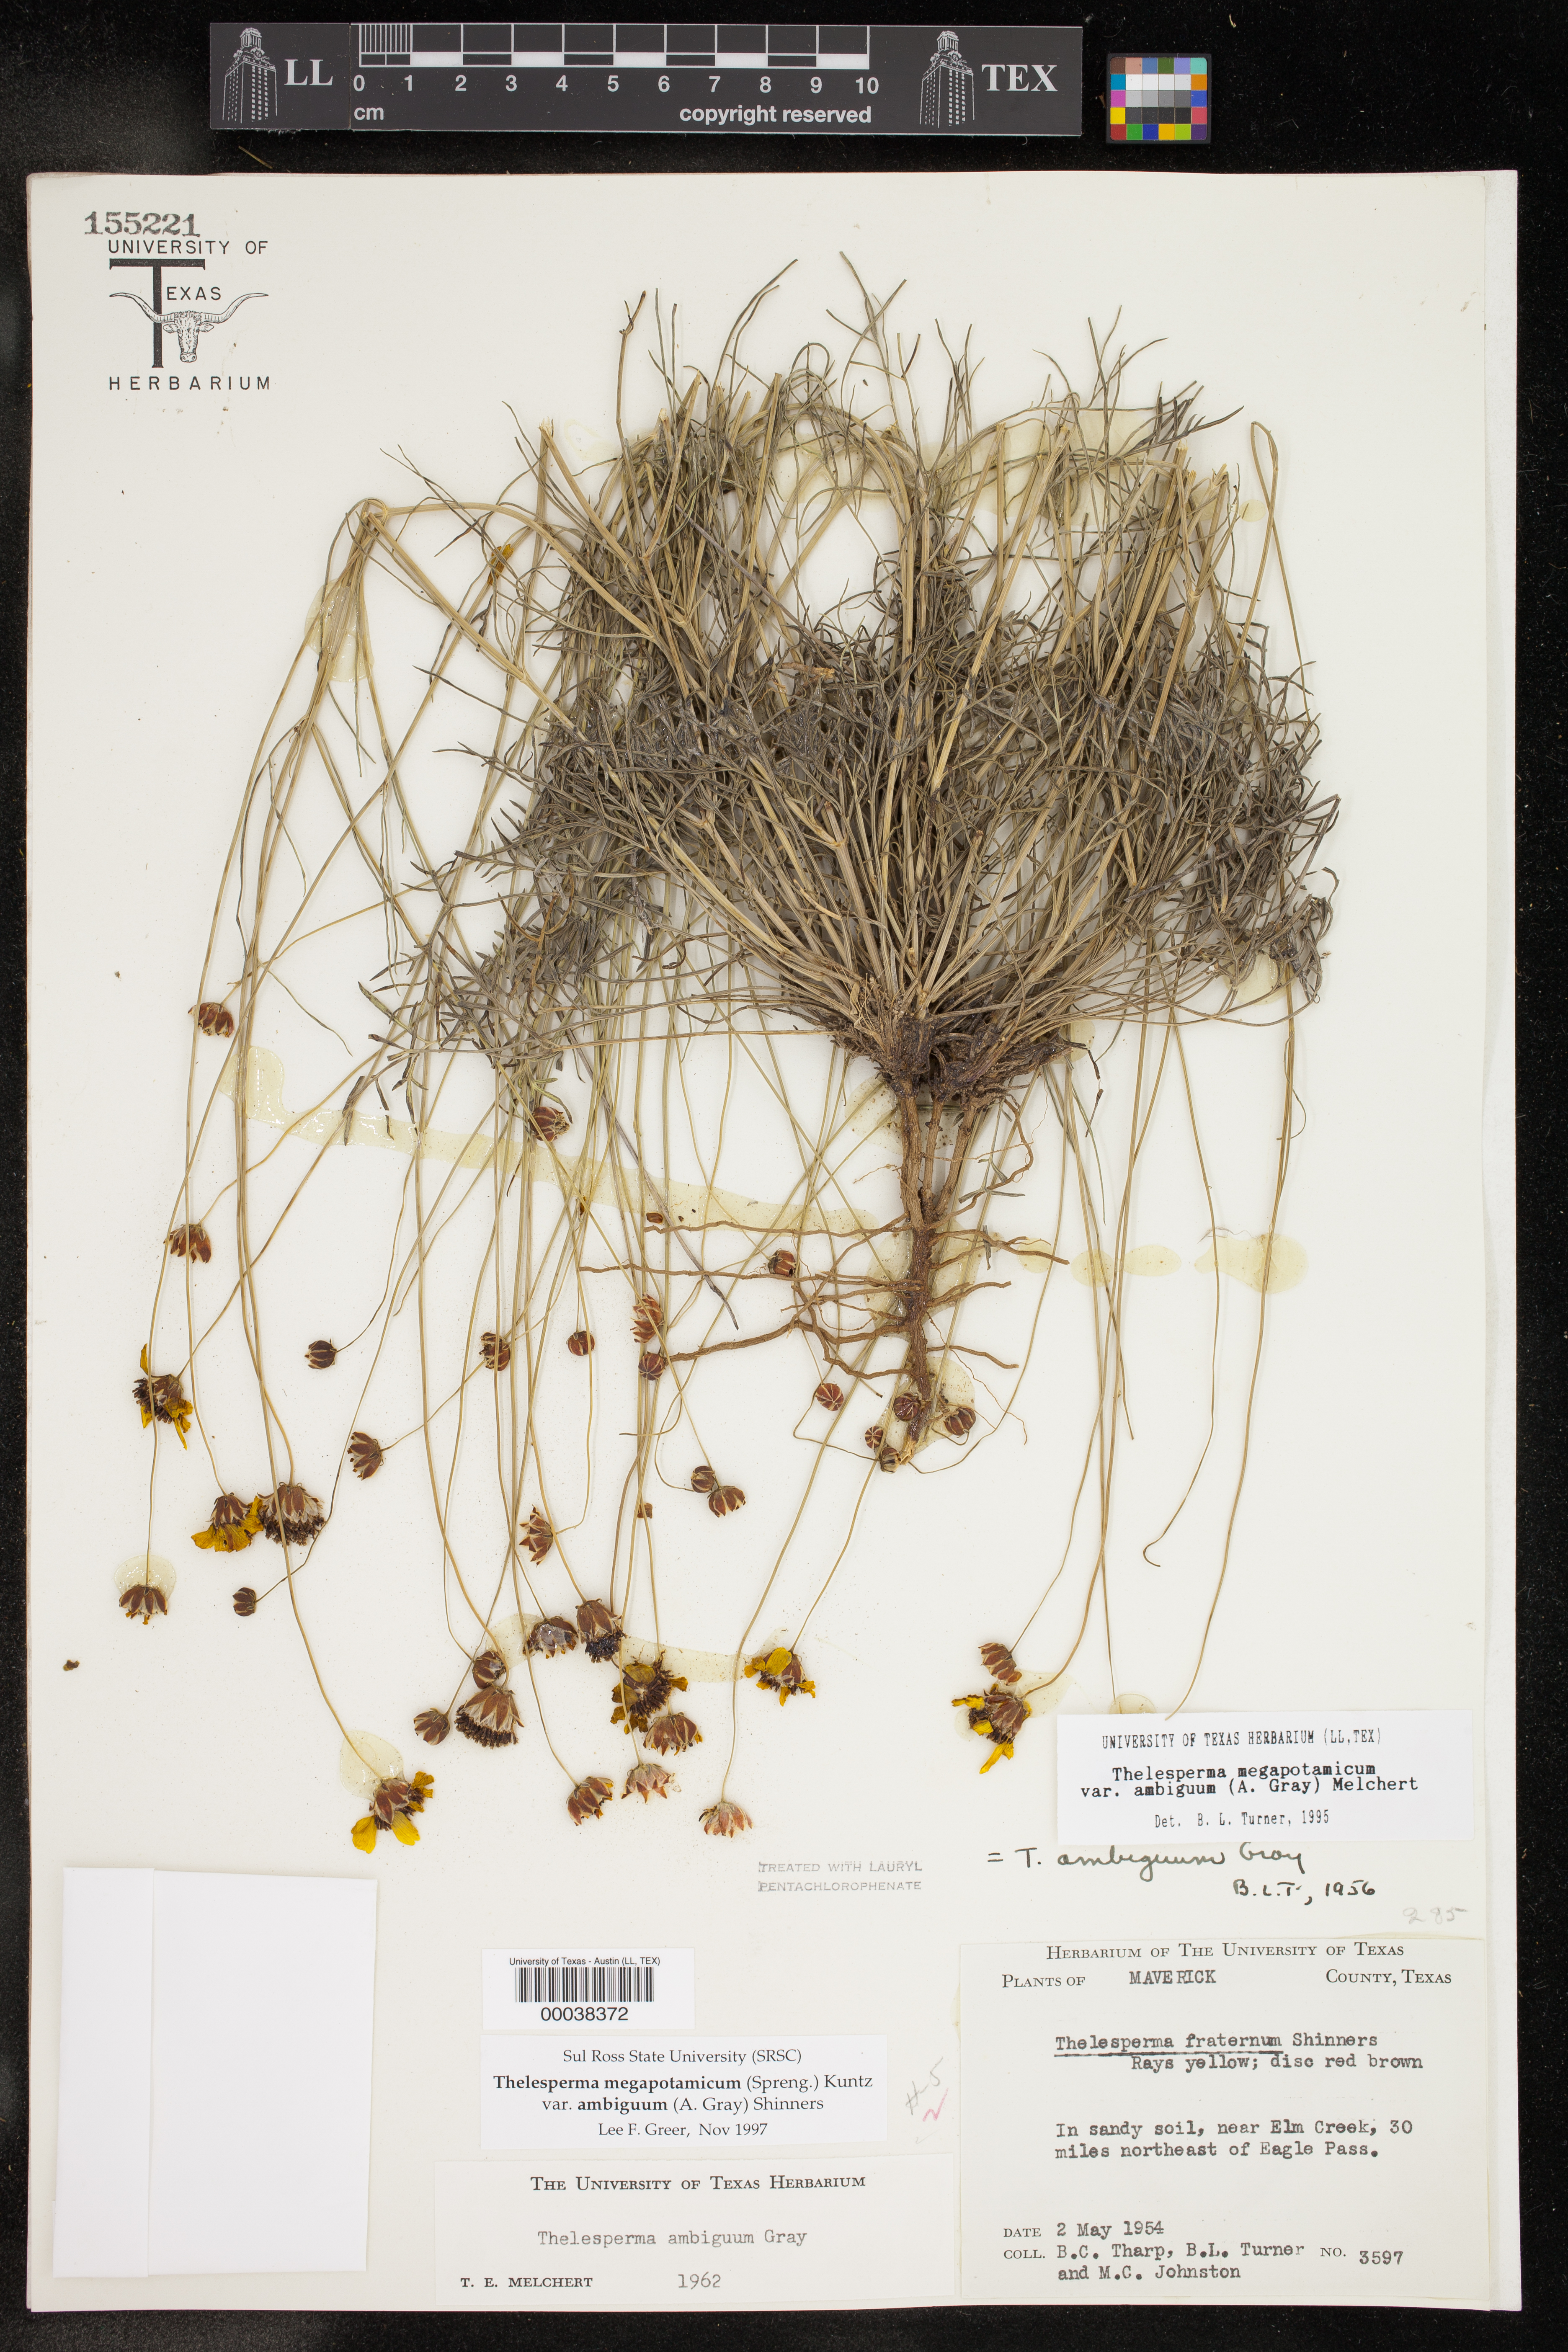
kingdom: Plantae
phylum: Tracheophyta
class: Magnoliopsida
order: Asterales
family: Asteraceae
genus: Thelesperma
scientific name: Thelesperma ambiguum
